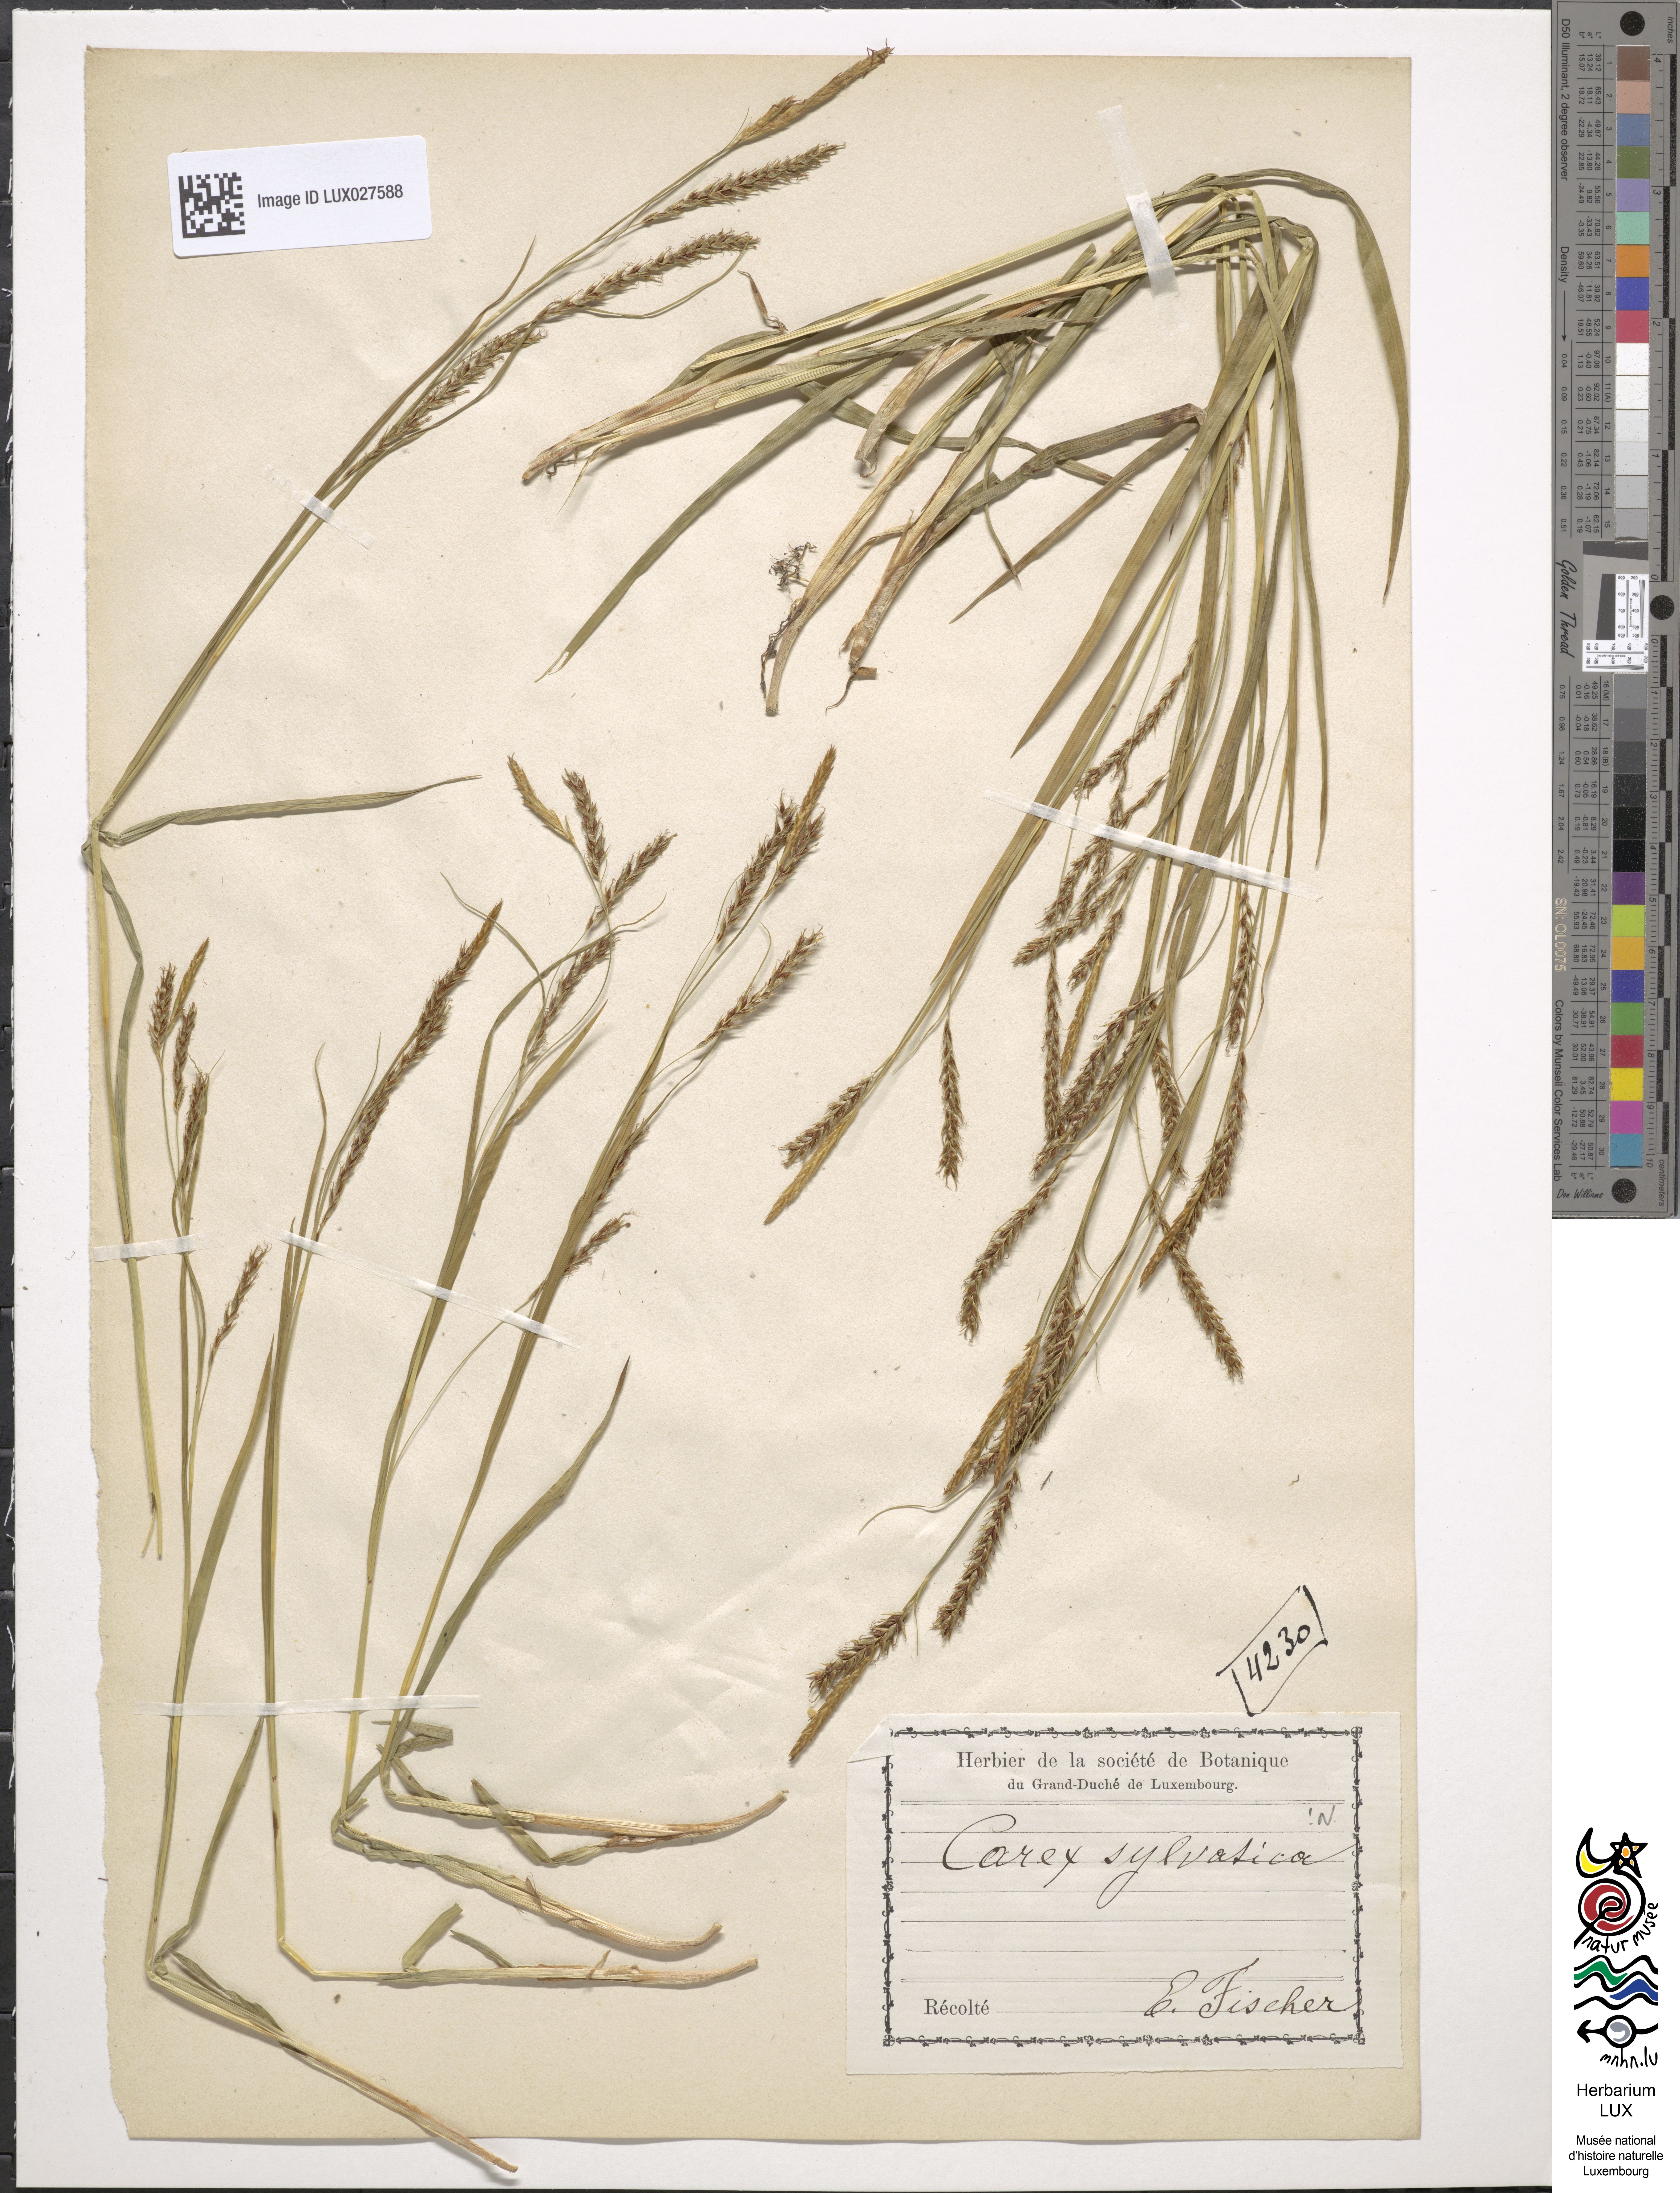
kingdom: Plantae
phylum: Tracheophyta
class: Liliopsida
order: Poales
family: Cyperaceae
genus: Carex
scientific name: Carex sylvatica
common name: Wood-sedge
